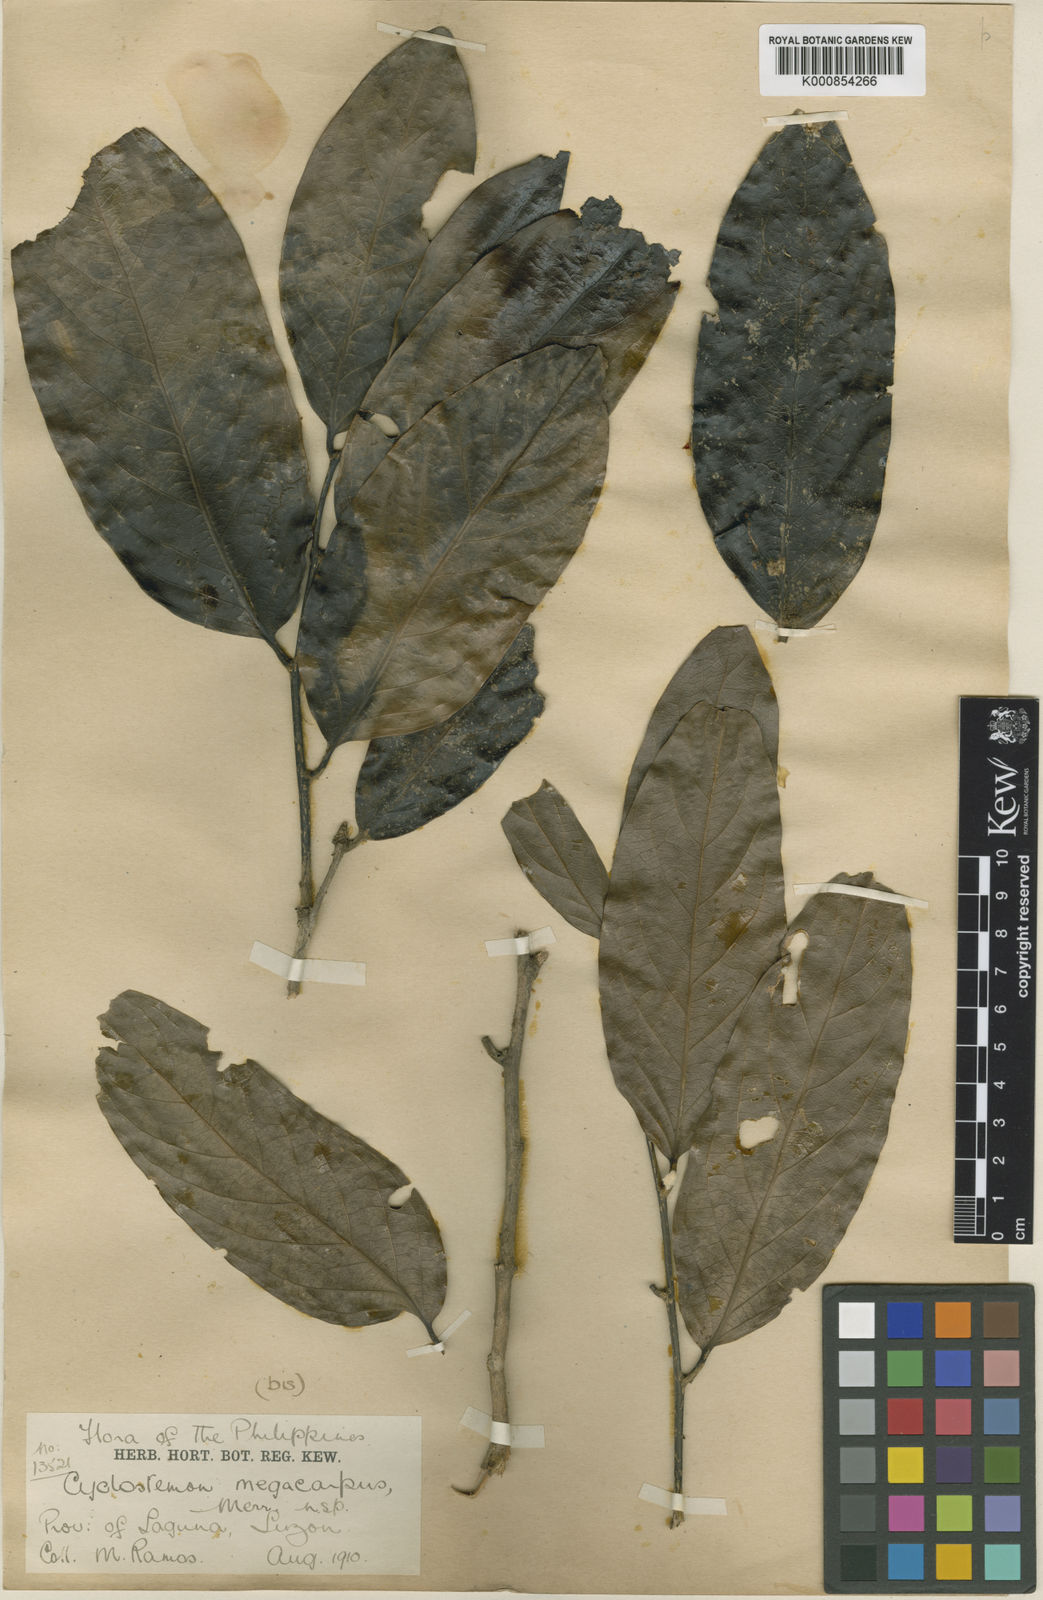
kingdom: Plantae
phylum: Tracheophyta
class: Magnoliopsida
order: Malpighiales
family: Putranjivaceae
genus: Drypetes
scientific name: Drypetes grandifolia
